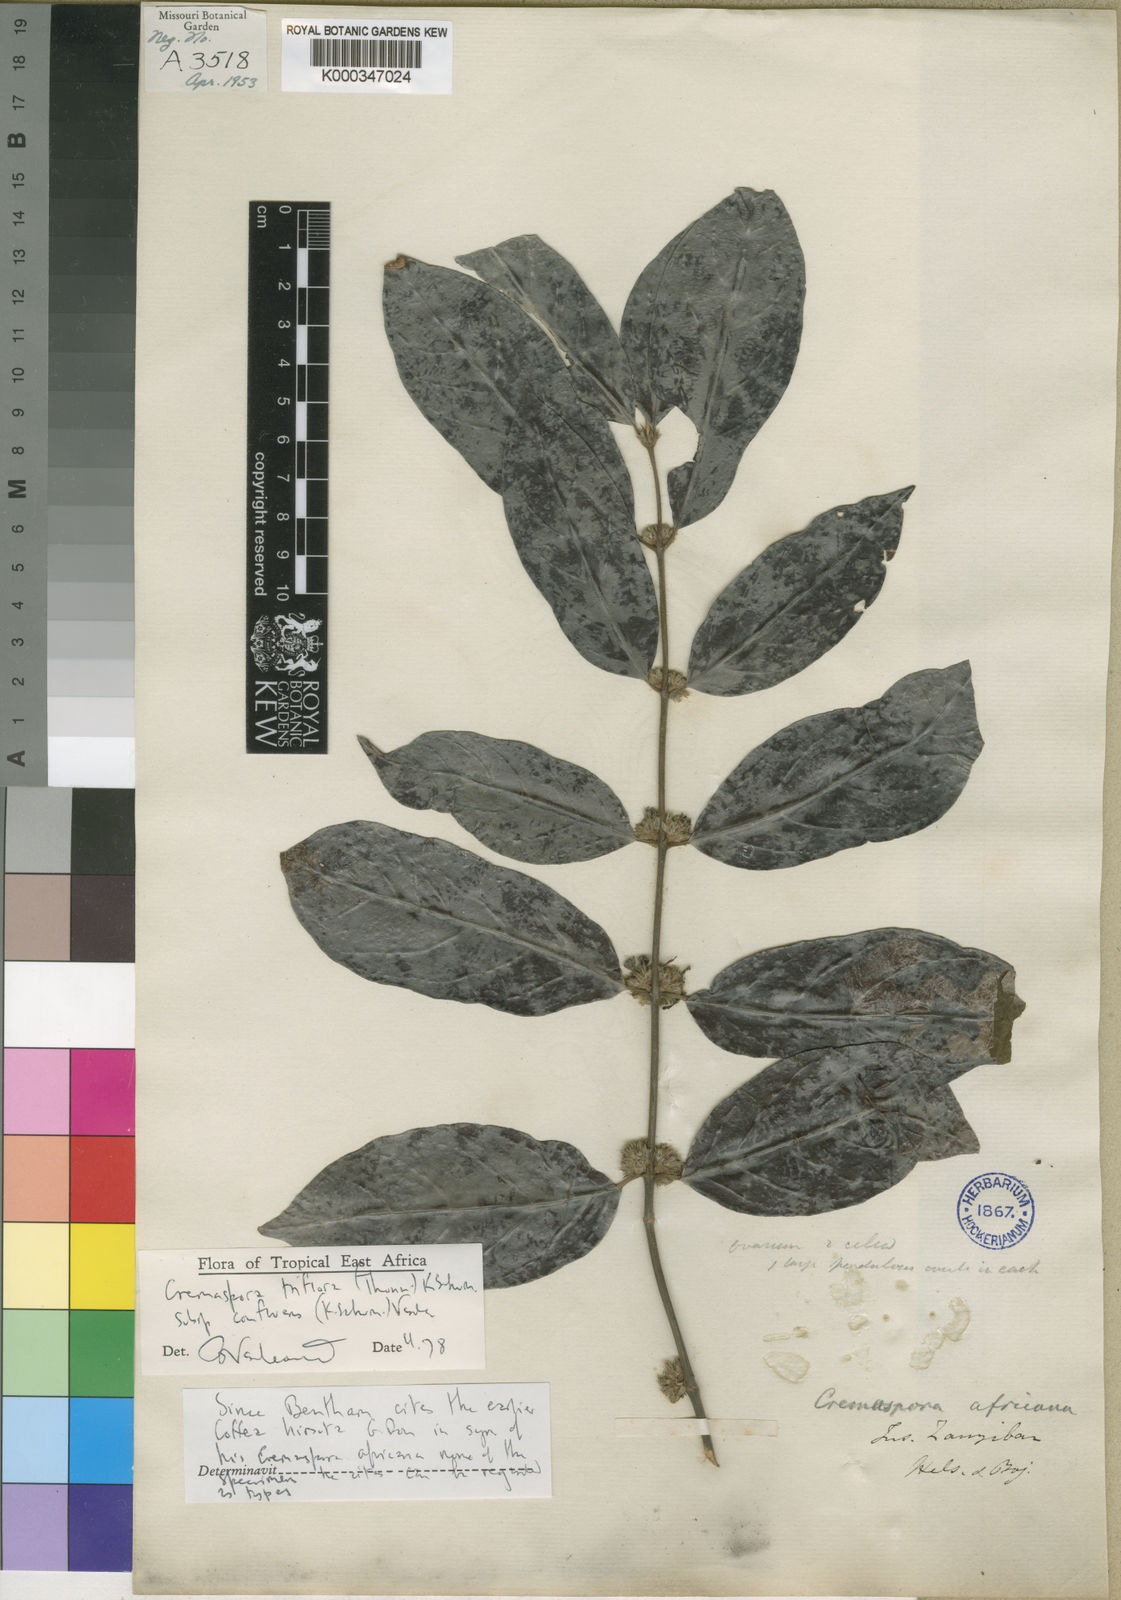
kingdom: Plantae
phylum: Tracheophyta
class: Magnoliopsida
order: Gentianales
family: Rubiaceae
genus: Cremaspora
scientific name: Cremaspora triflora
